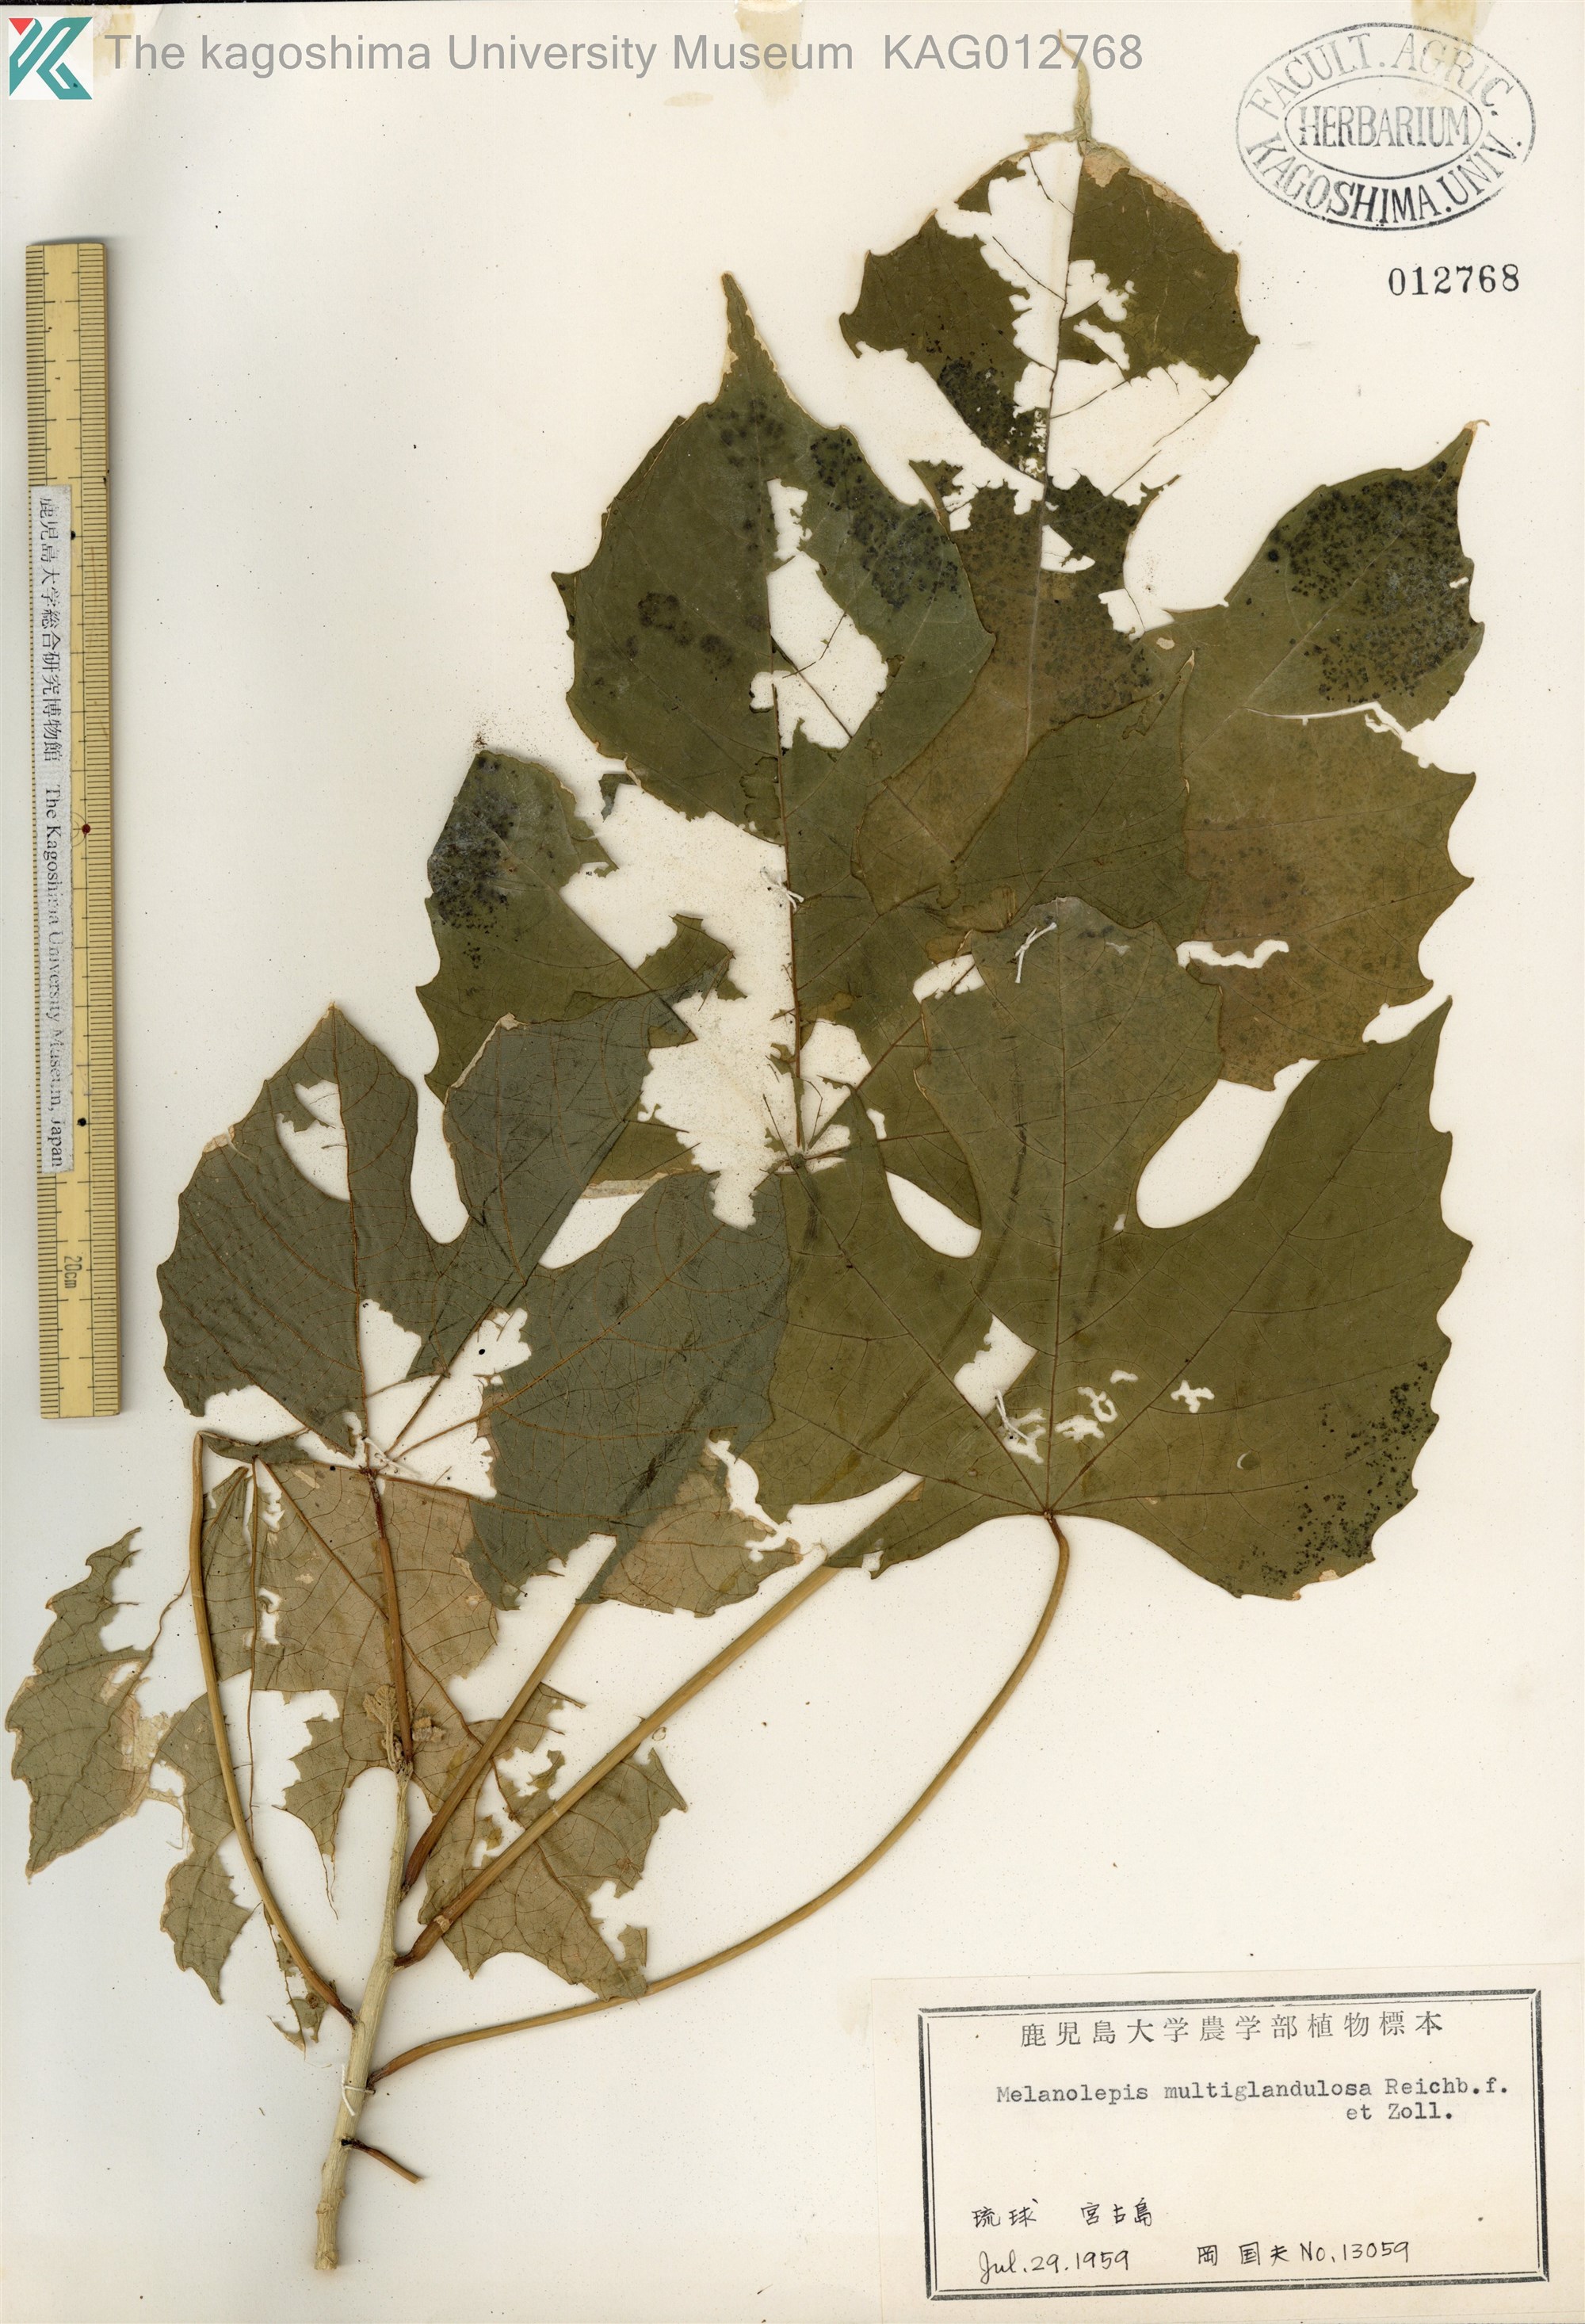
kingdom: Plantae
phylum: Tracheophyta
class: Magnoliopsida
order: Malpighiales
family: Euphorbiaceae
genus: Melanolepis
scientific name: Melanolepis multiglandulosa
